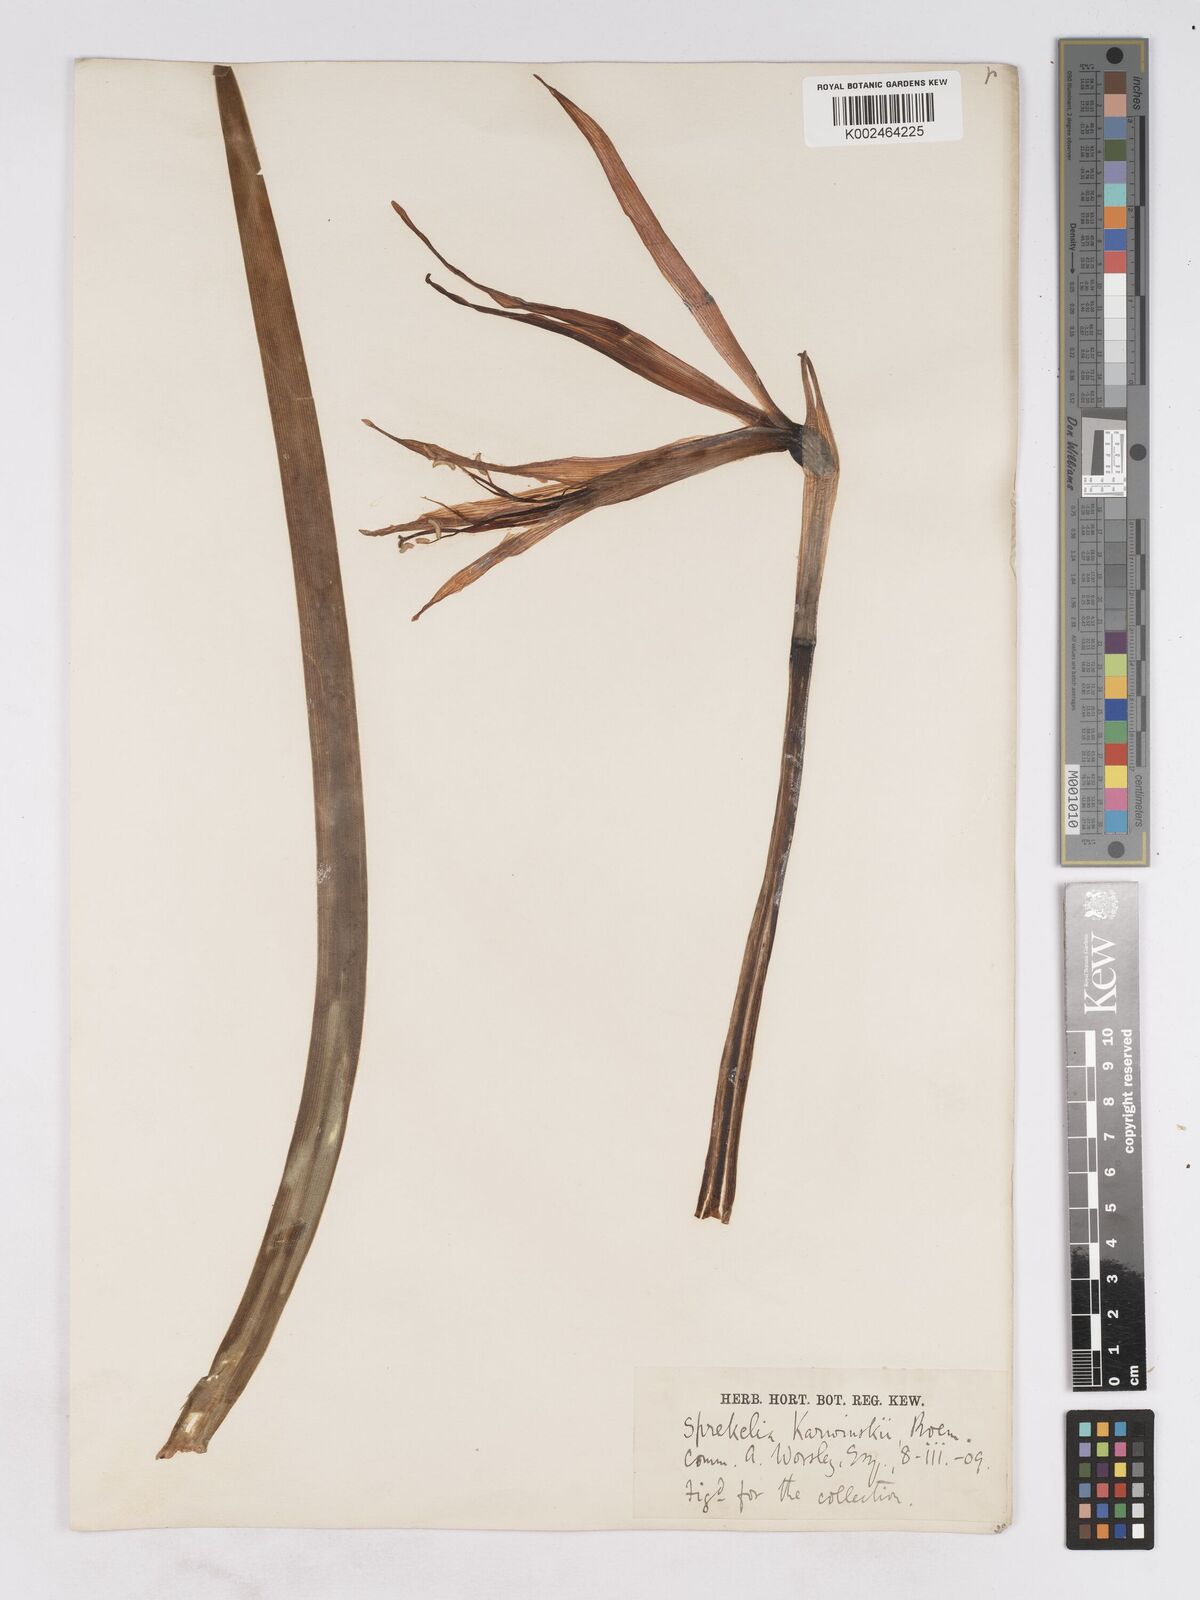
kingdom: Plantae
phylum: Tracheophyta
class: Liliopsida
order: Asparagales
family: Amaryllidaceae
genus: Sprekelia
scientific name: Sprekelia formosissima
